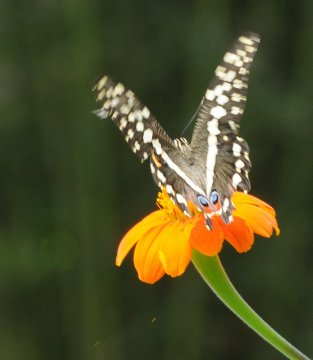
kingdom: Animalia
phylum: Arthropoda
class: Insecta
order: Lepidoptera
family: Papilionidae
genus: Papilio
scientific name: Papilio demodocus
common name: Citrus Swallowtail
